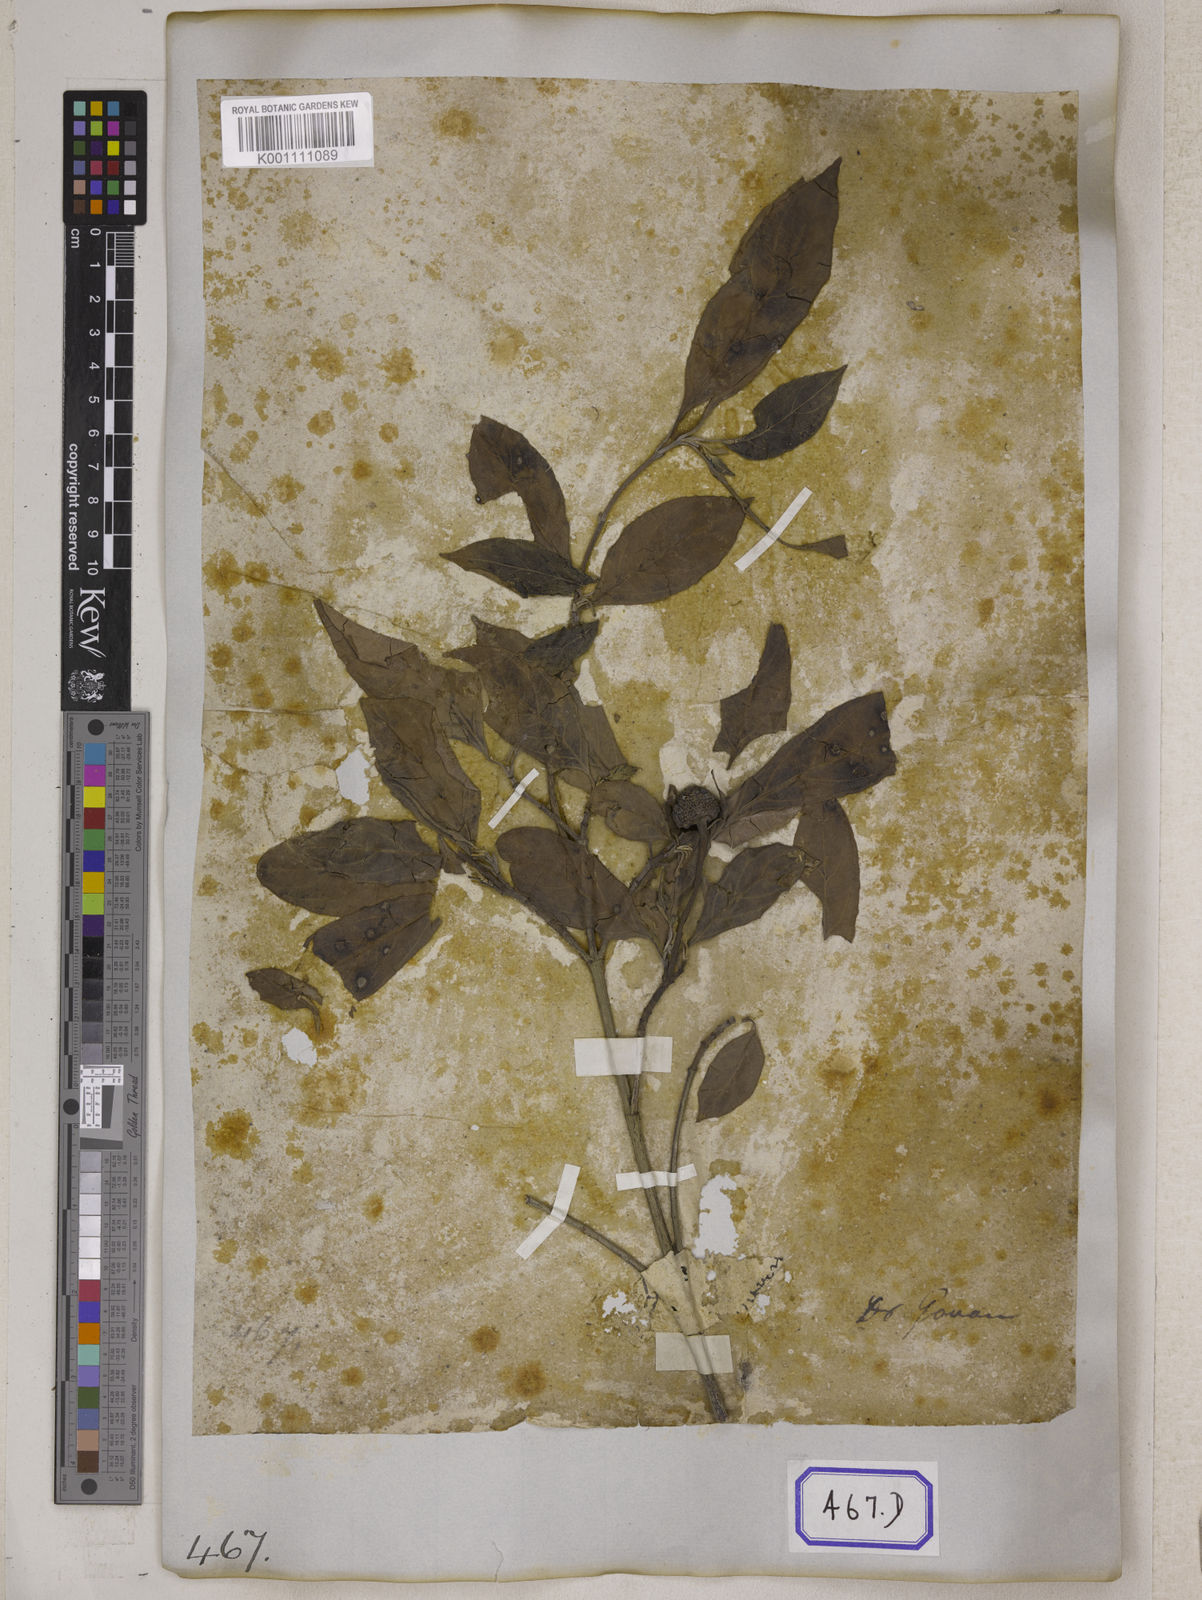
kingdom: Plantae
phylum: Tracheophyta
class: Magnoliopsida
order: Cornales
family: Cornaceae
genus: Cornus
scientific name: Cornus capitata
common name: Bentham's cornel
